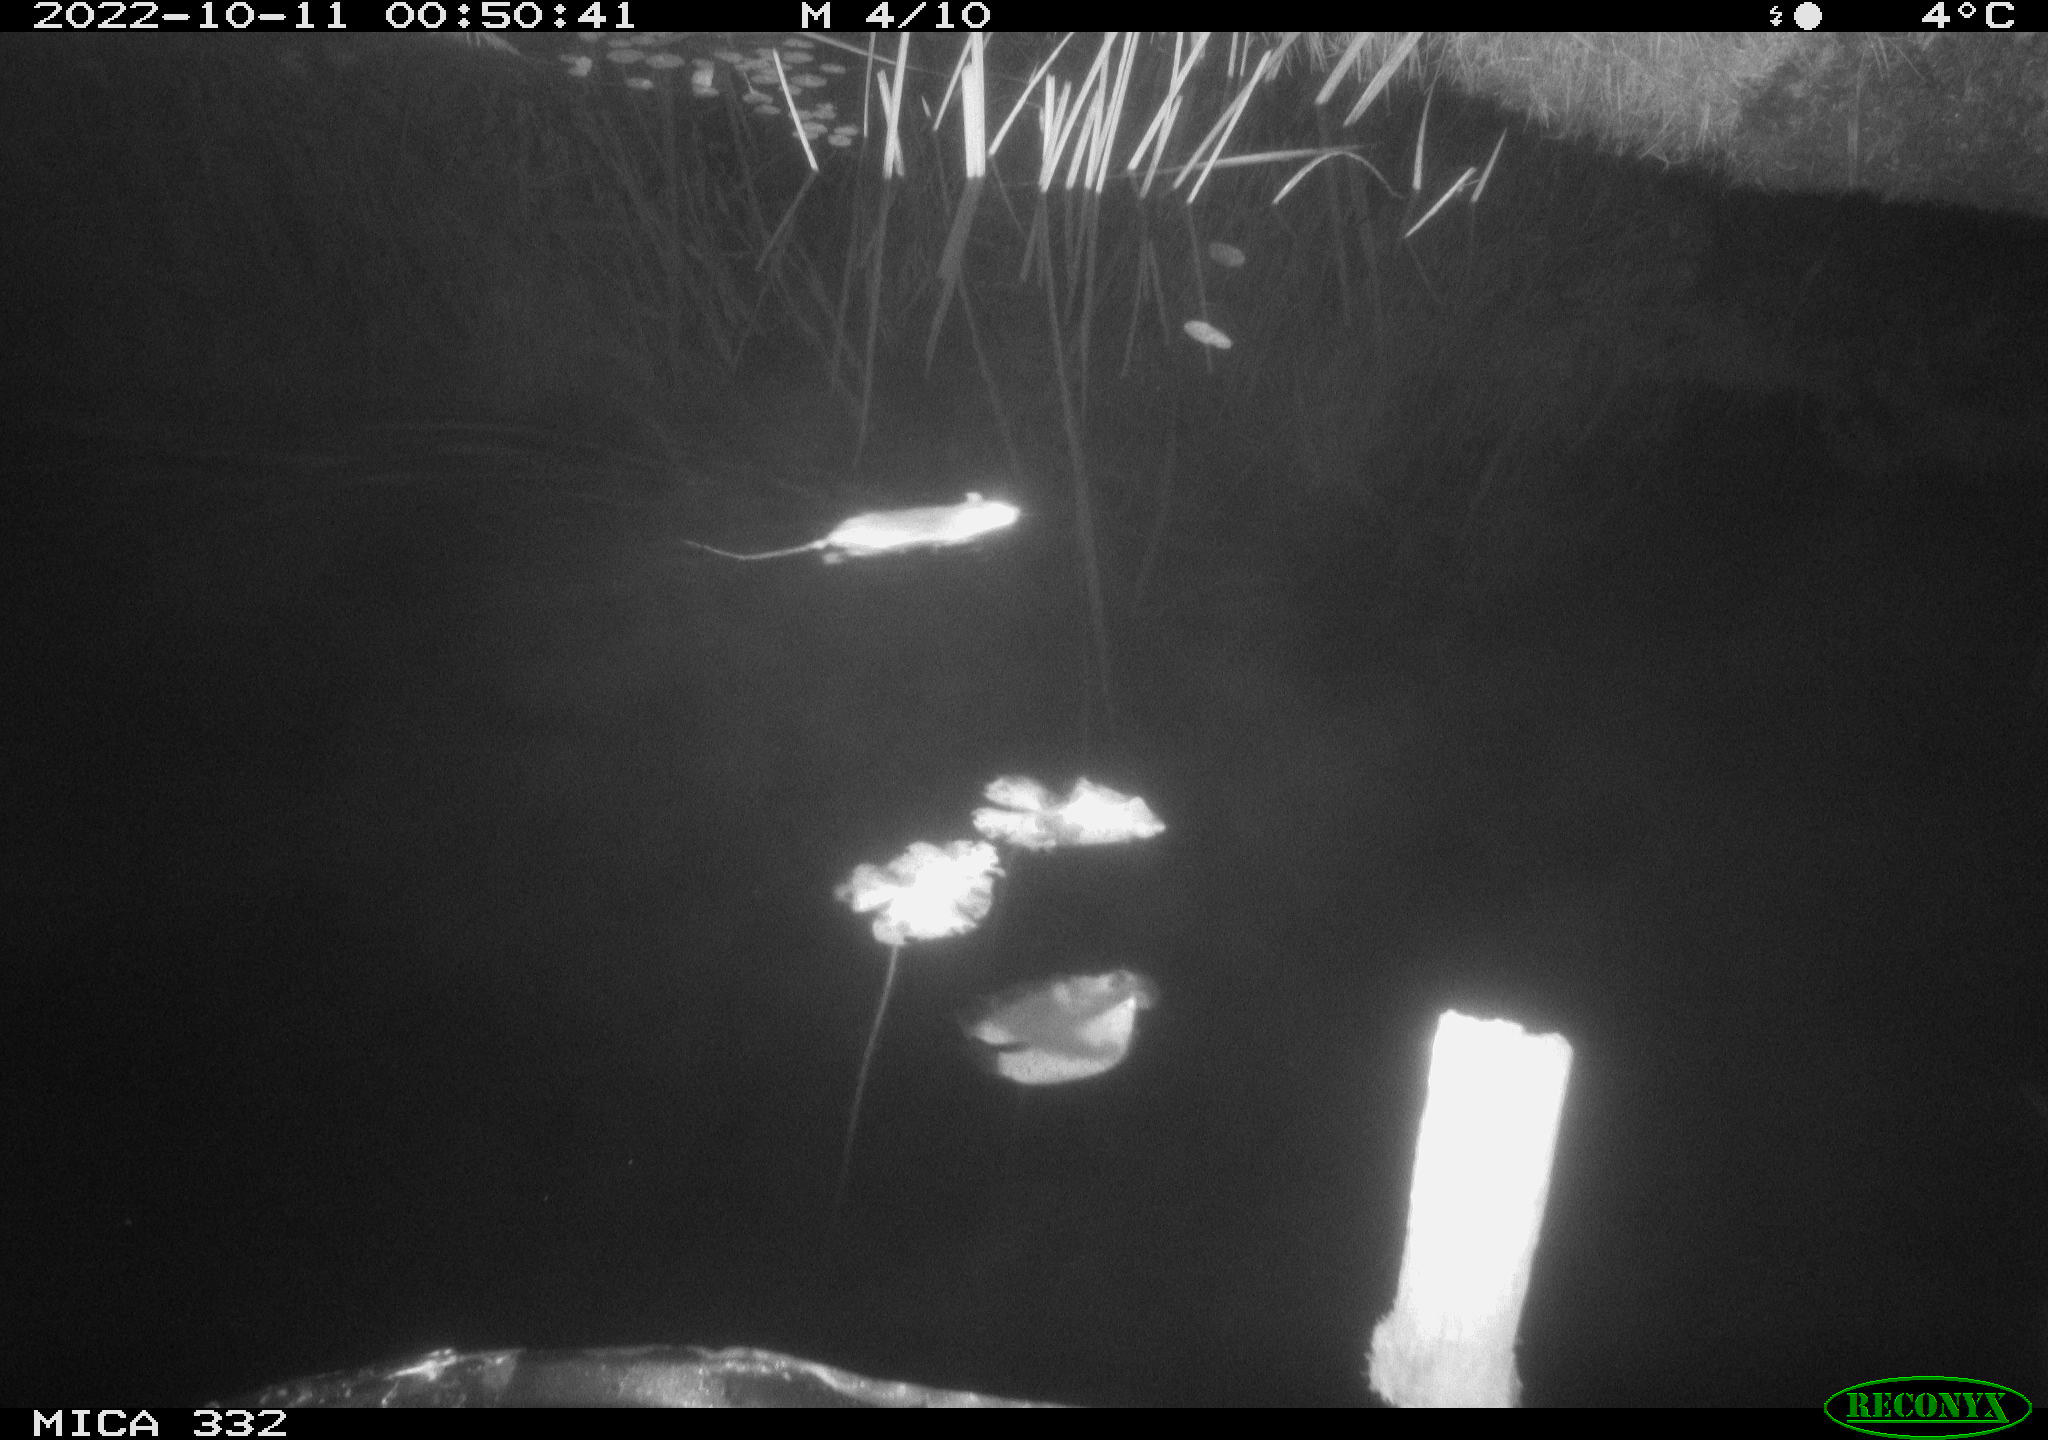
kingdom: Animalia
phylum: Chordata
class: Mammalia
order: Rodentia
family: Muridae
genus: Rattus
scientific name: Rattus norvegicus
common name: Brown rat
